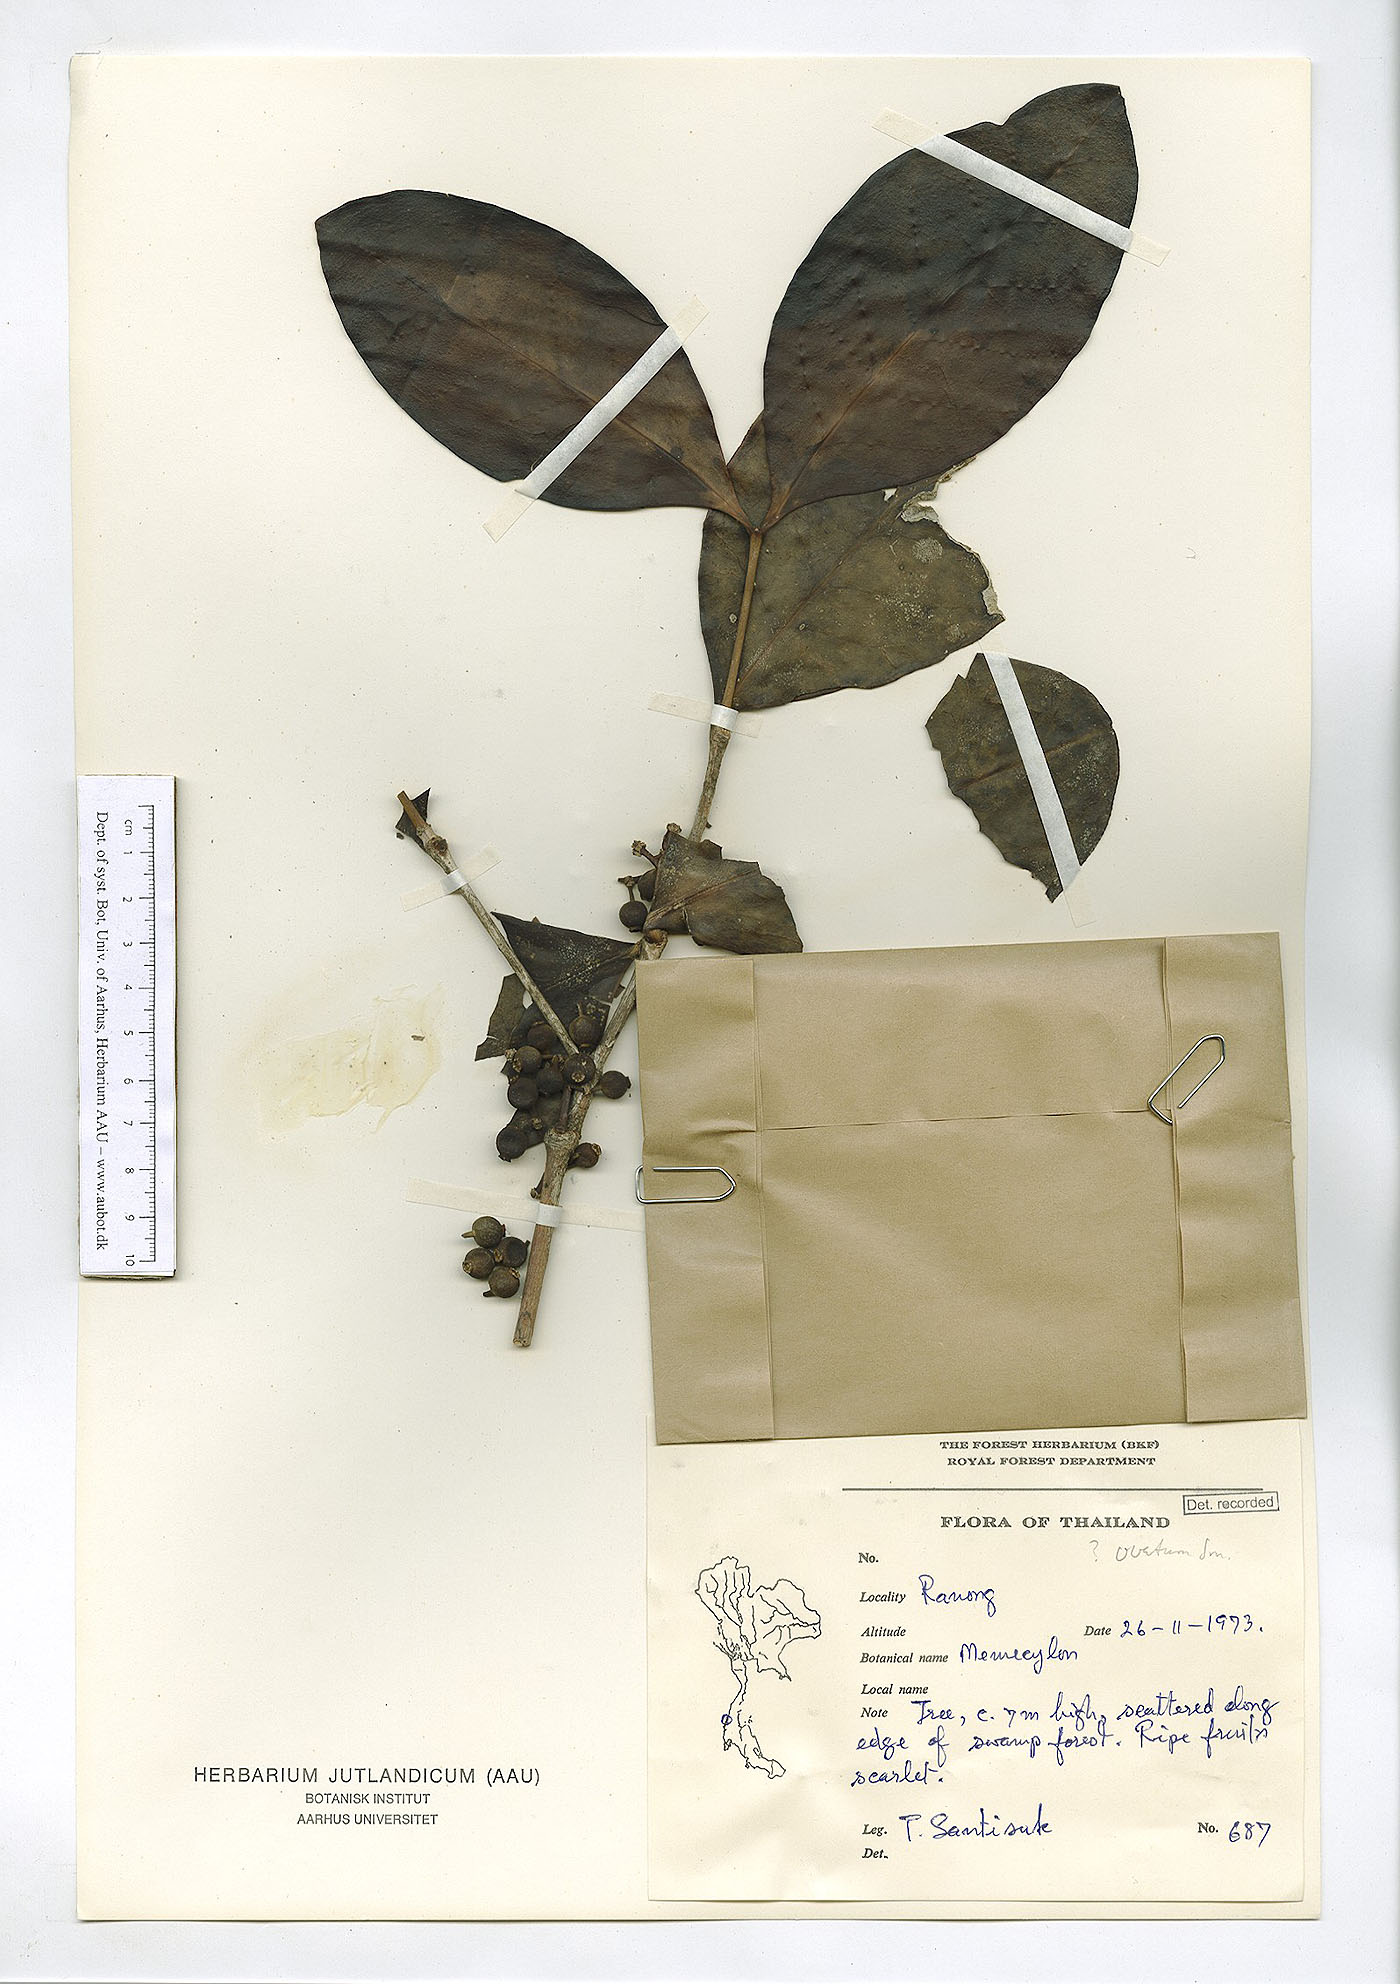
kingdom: Plantae
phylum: Tracheophyta
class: Magnoliopsida
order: Myrtales
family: Melastomataceae
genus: Memecylon
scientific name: Memecylon elegans
